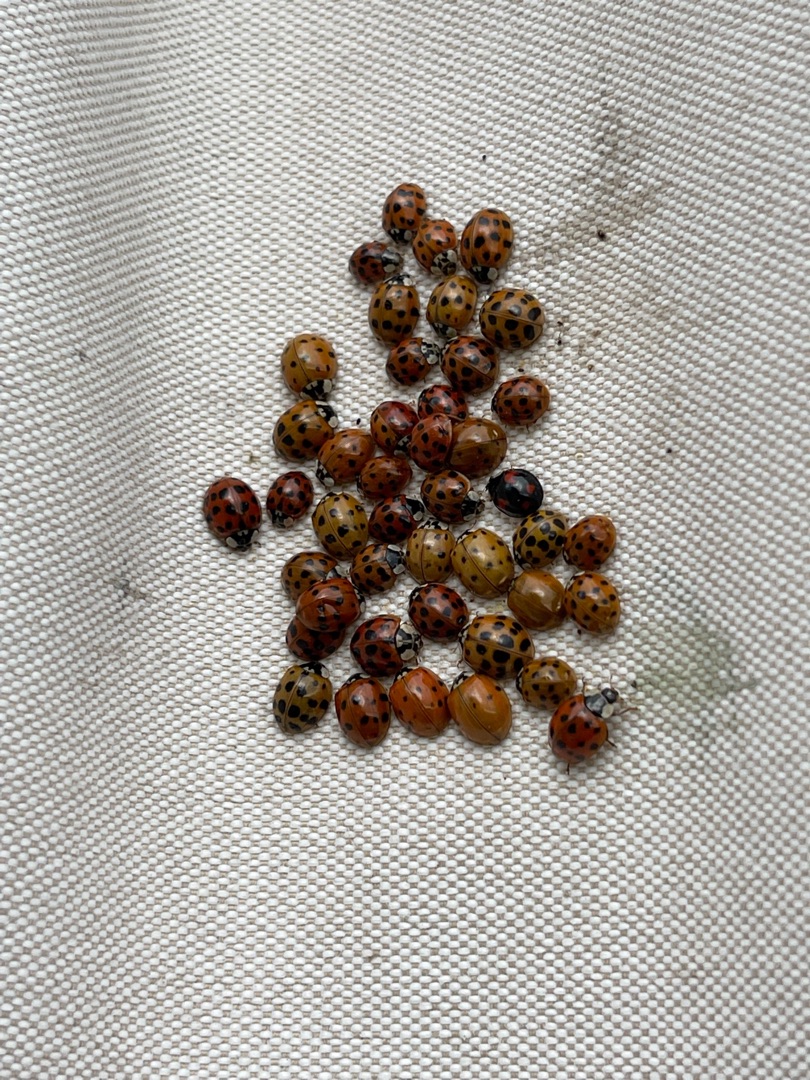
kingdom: Animalia
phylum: Arthropoda
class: Insecta
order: Coleoptera
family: Coccinellidae
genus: Harmonia
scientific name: Harmonia axyridis
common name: Harlekinmariehøne
